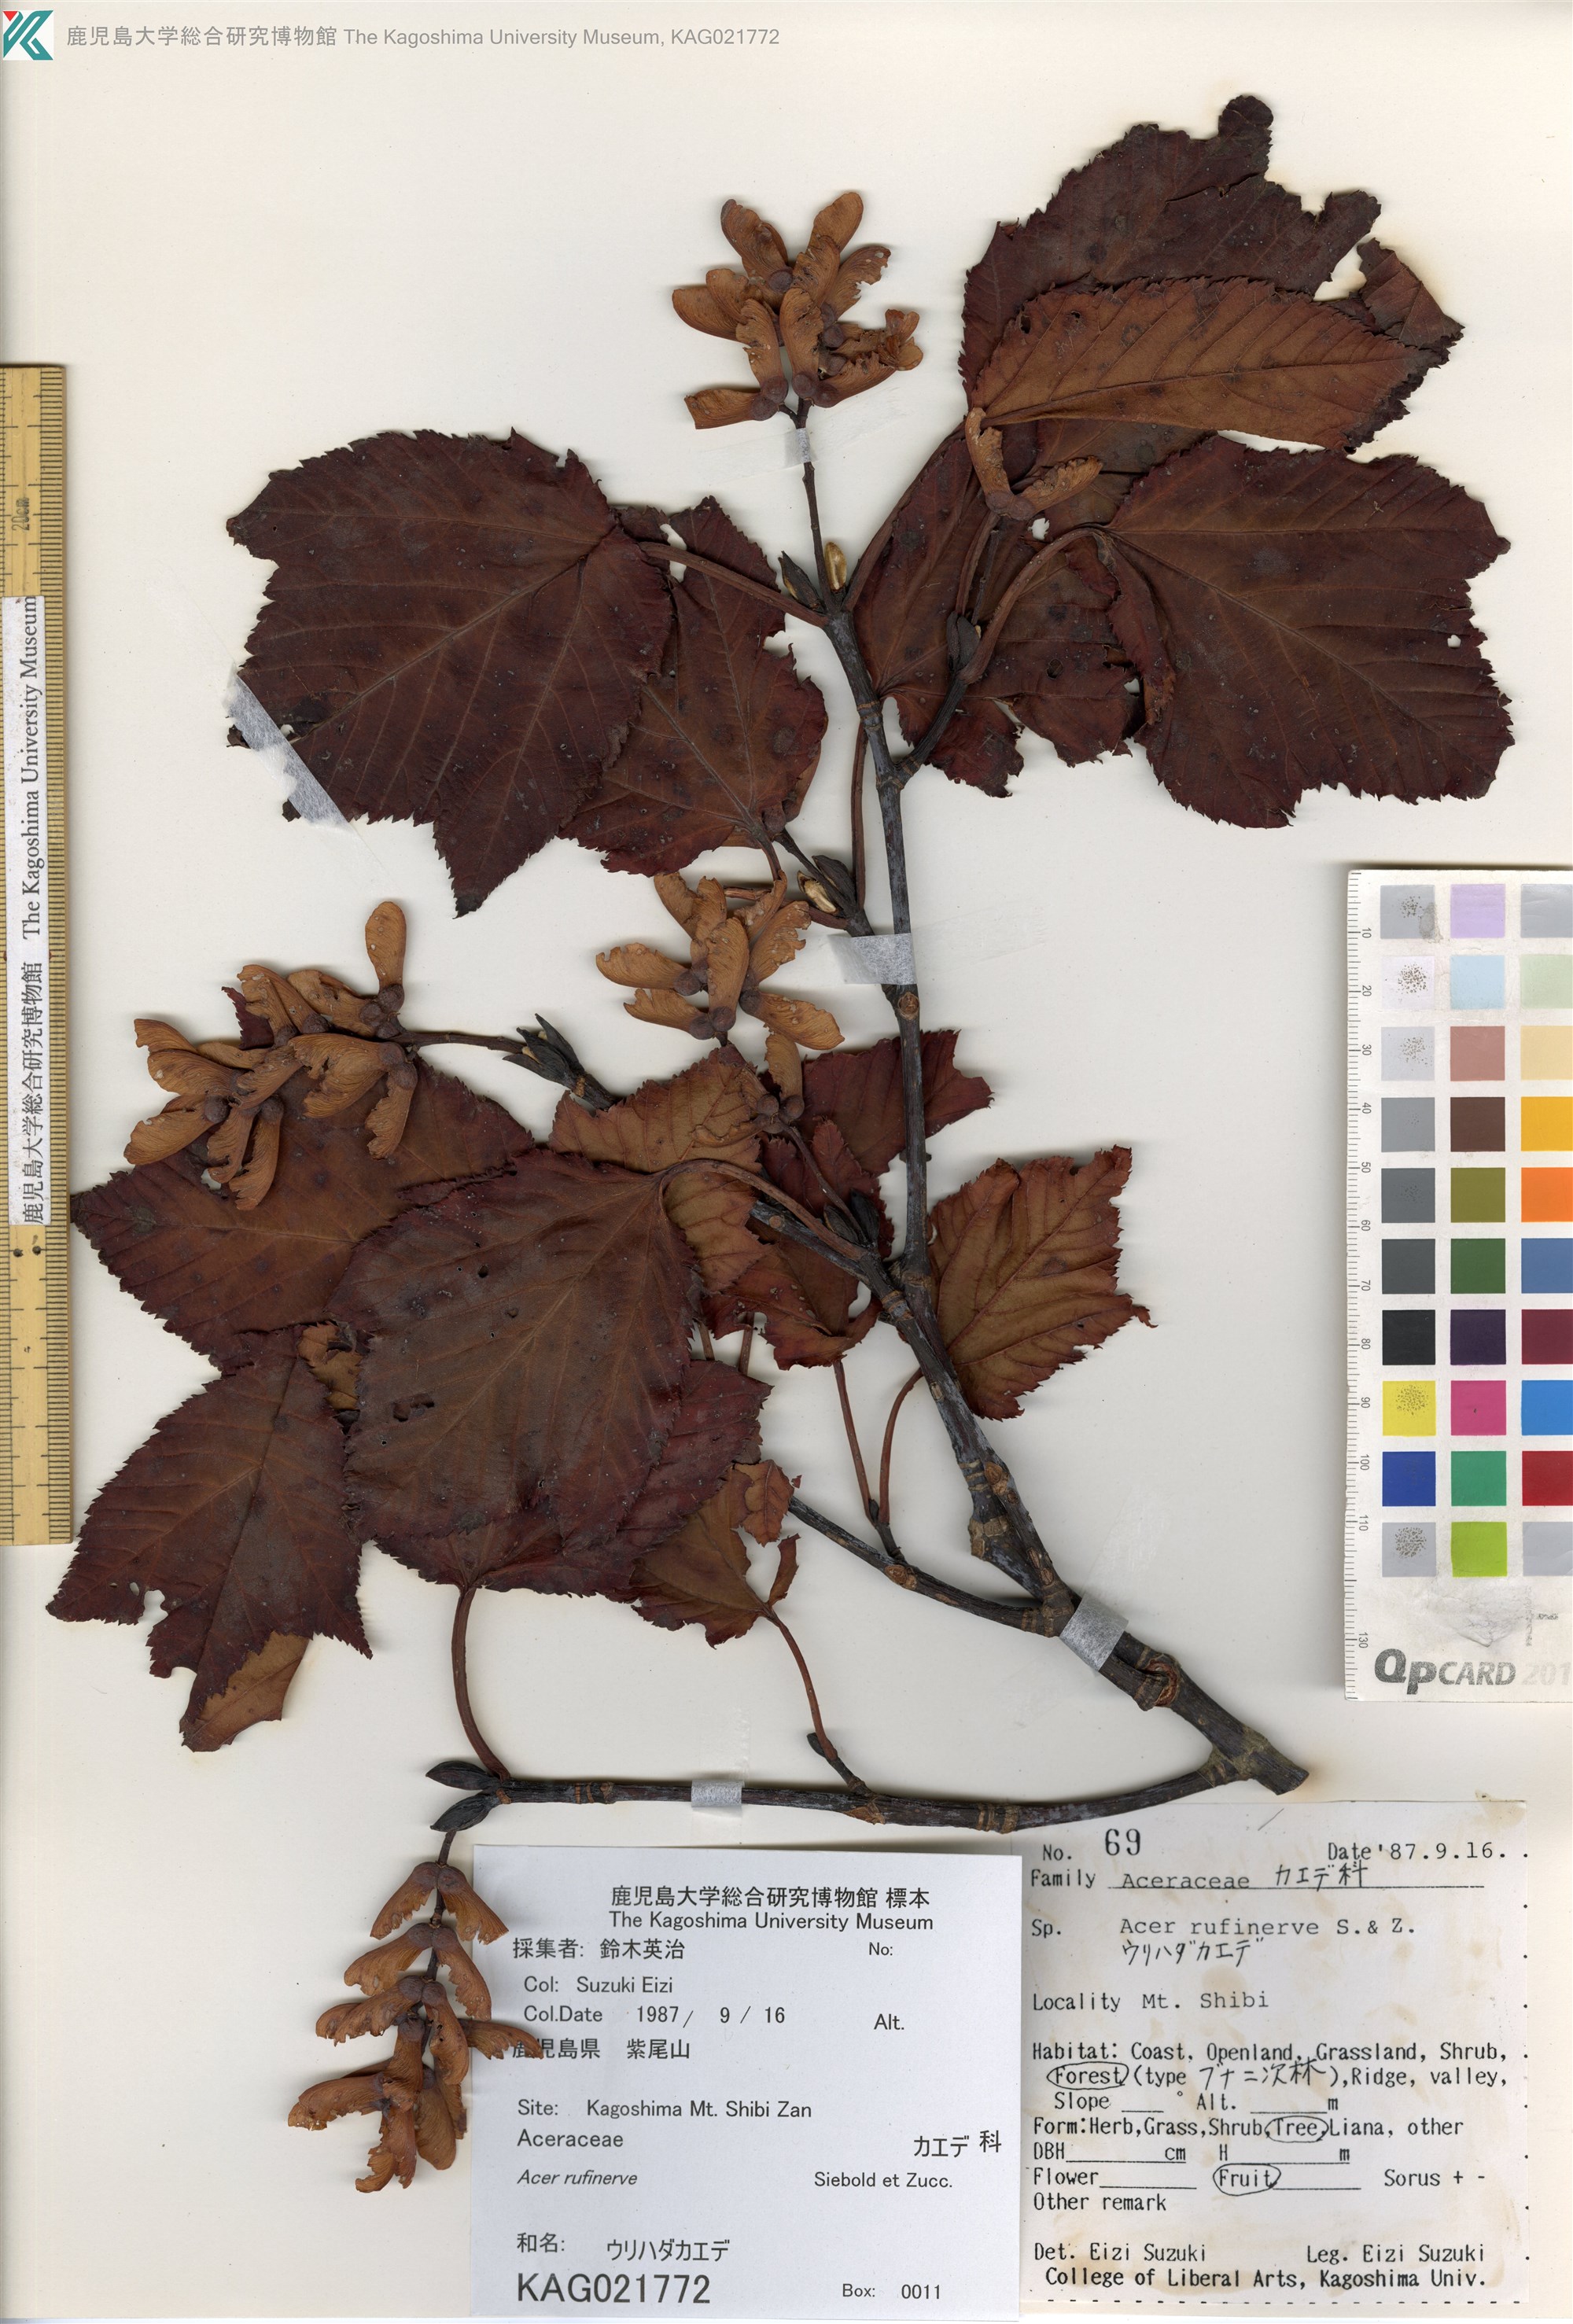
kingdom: Plantae
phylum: Tracheophyta
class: Magnoliopsida
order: Sapindales
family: Sapindaceae
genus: Acer
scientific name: Acer rufinerve
